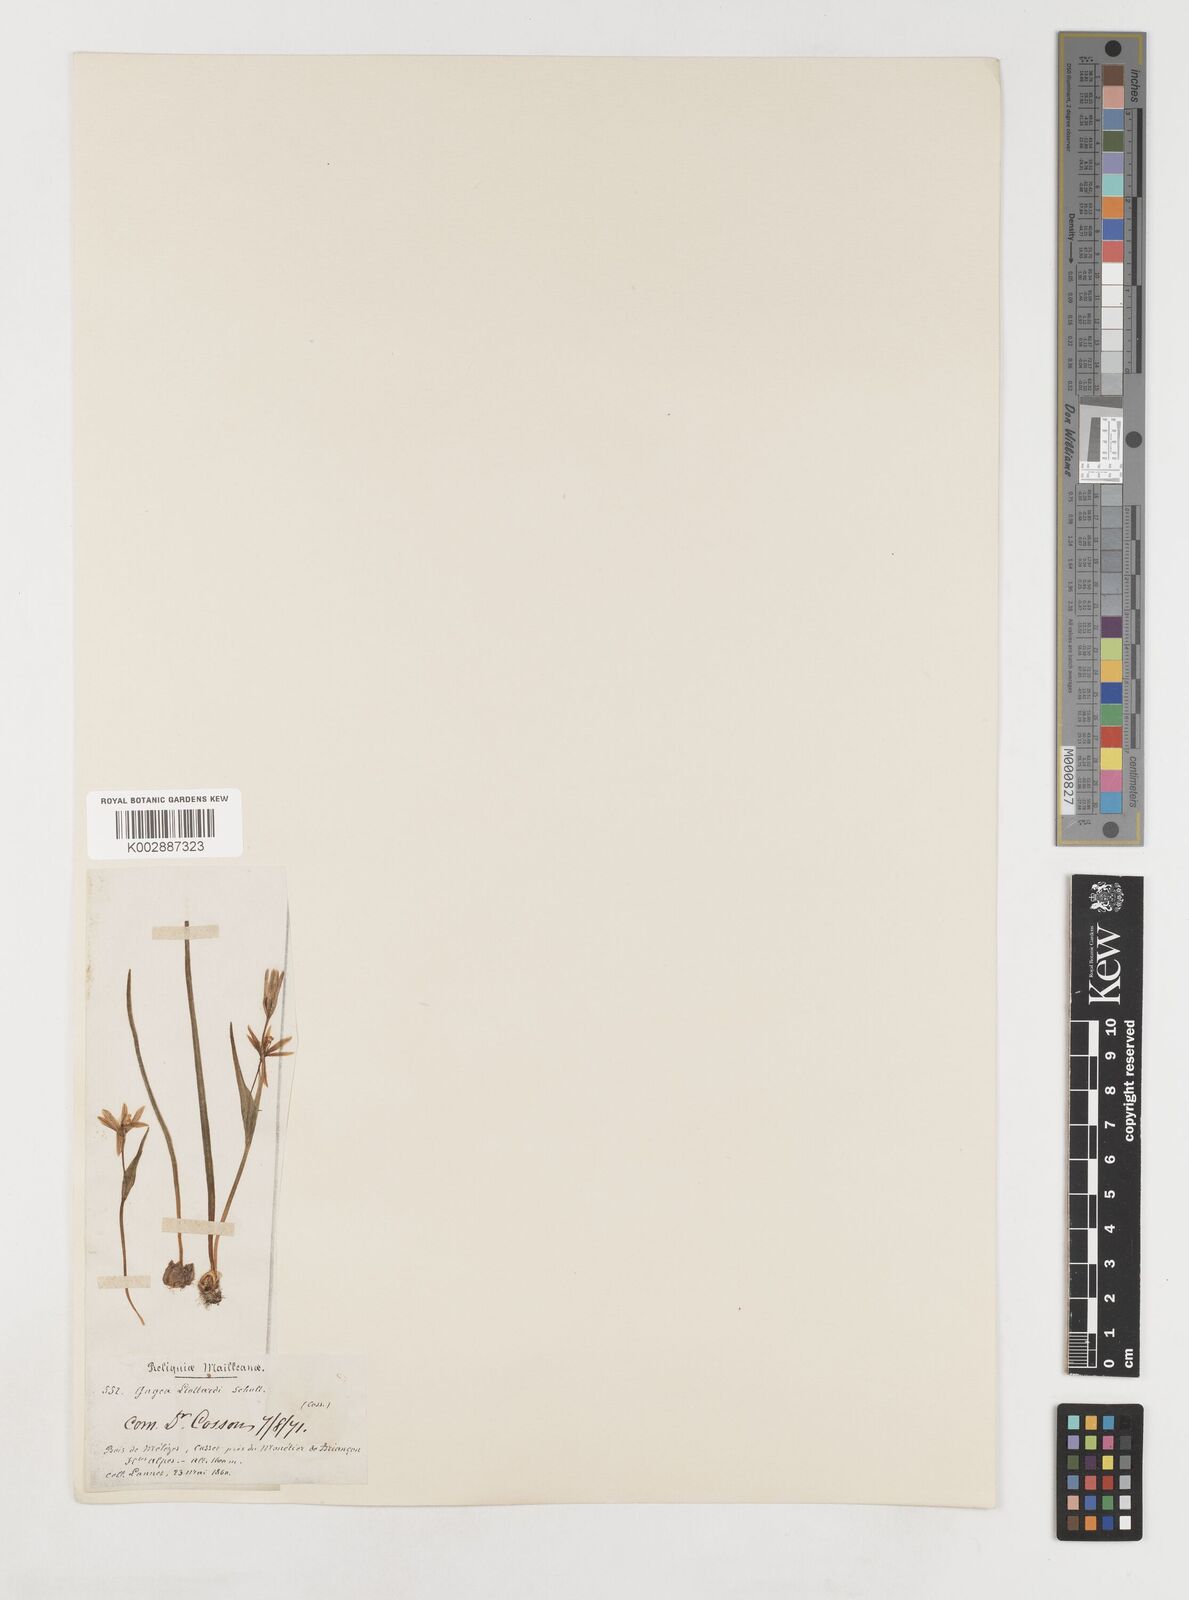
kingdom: Plantae
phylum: Tracheophyta
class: Liliopsida
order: Liliales
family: Liliaceae
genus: Gagea
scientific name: Gagea bohemica
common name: Early star-of-bethlehem
